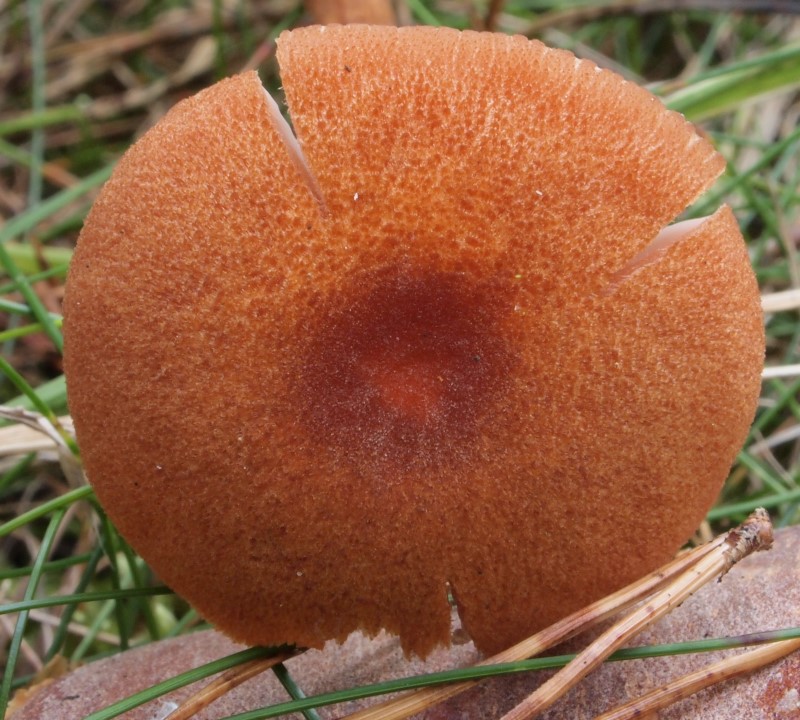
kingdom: Fungi
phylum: Basidiomycota
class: Agaricomycetes
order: Agaricales
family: Hydnangiaceae
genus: Laccaria
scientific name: Laccaria proxima
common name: stor ametysthat
